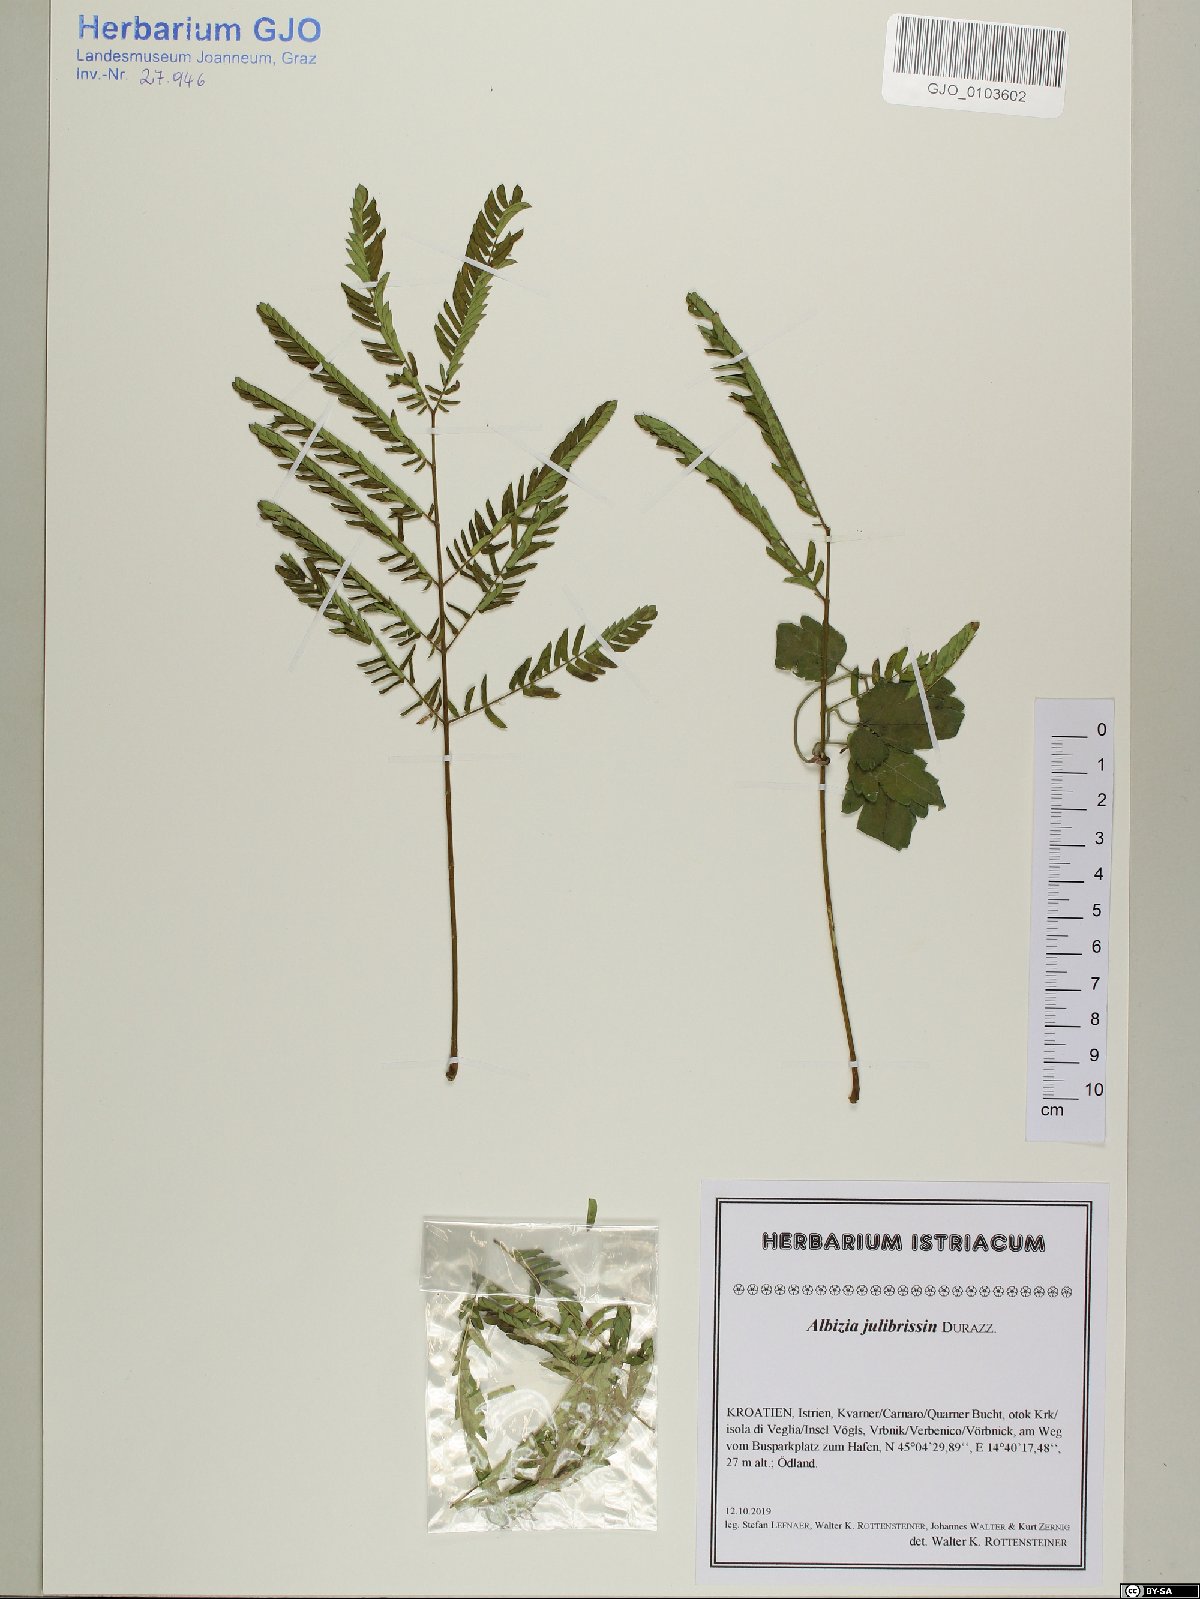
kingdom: Plantae
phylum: Tracheophyta
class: Magnoliopsida
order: Fabales
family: Fabaceae
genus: Albizia
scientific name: Albizia julibrissin
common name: Silktree
